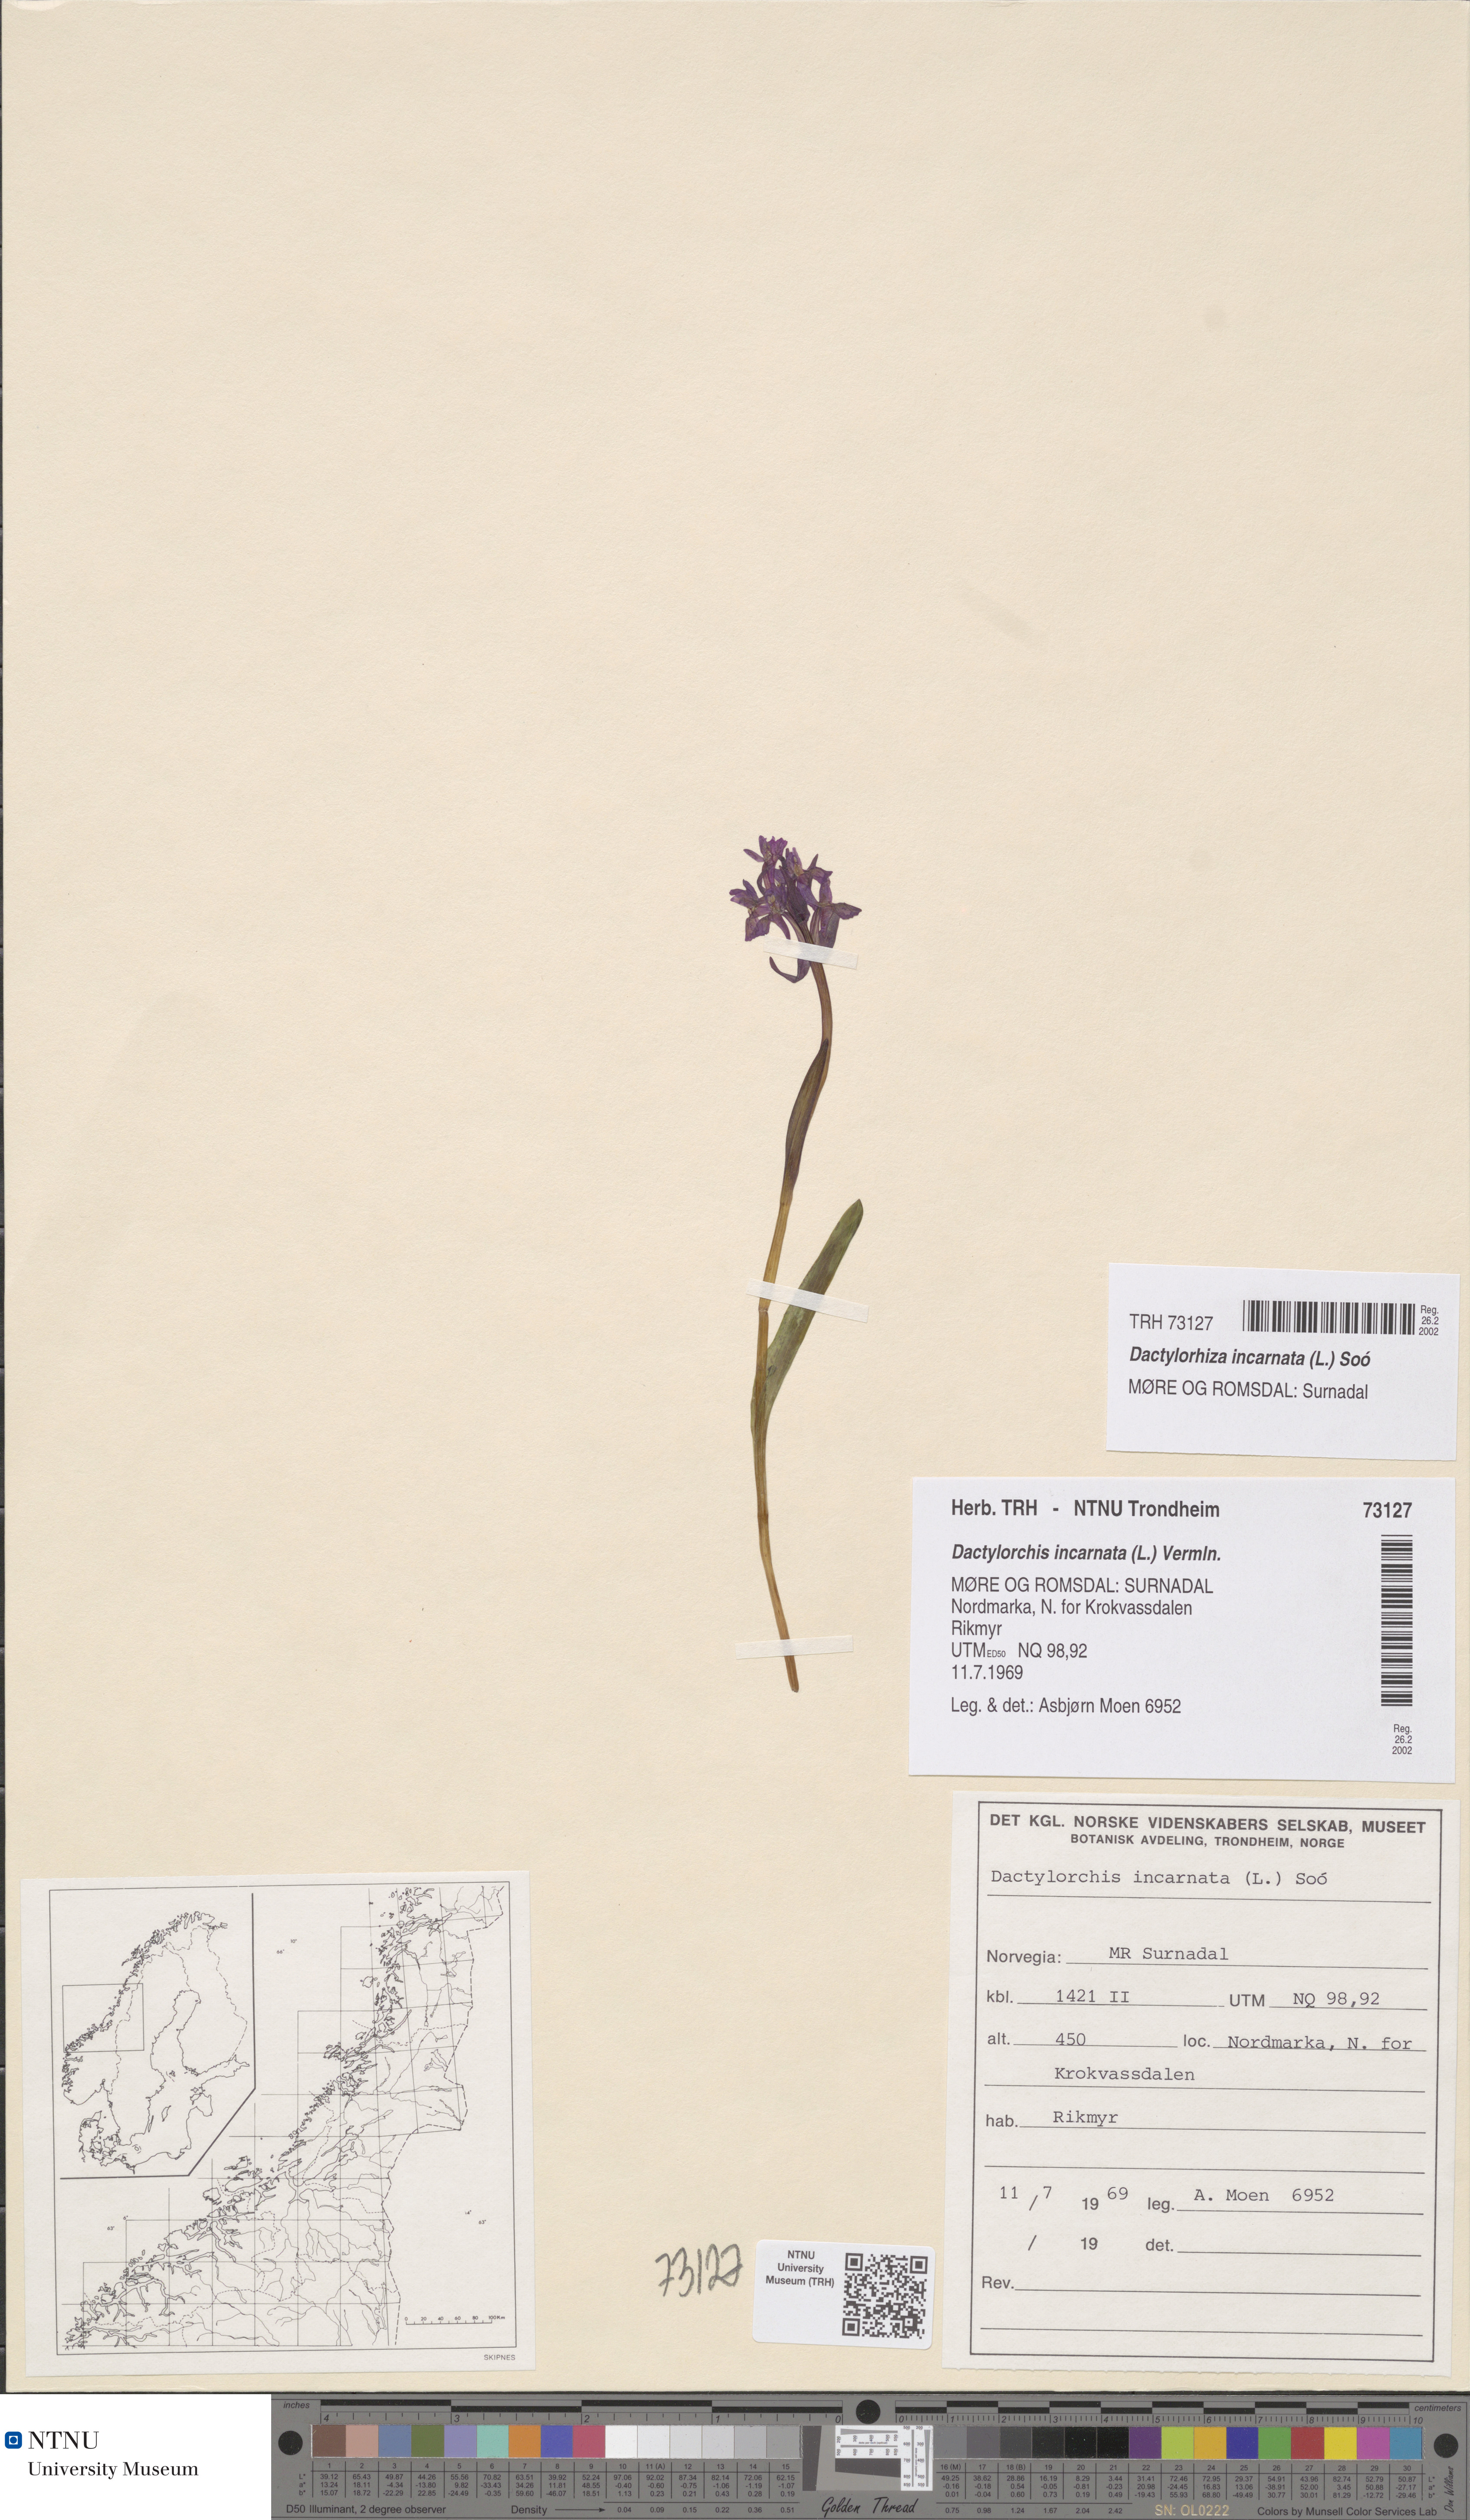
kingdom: Plantae
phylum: Tracheophyta
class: Liliopsida
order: Asparagales
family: Orchidaceae
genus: Dactylorhiza
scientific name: Dactylorhiza incarnata
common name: Early marsh-orchid
